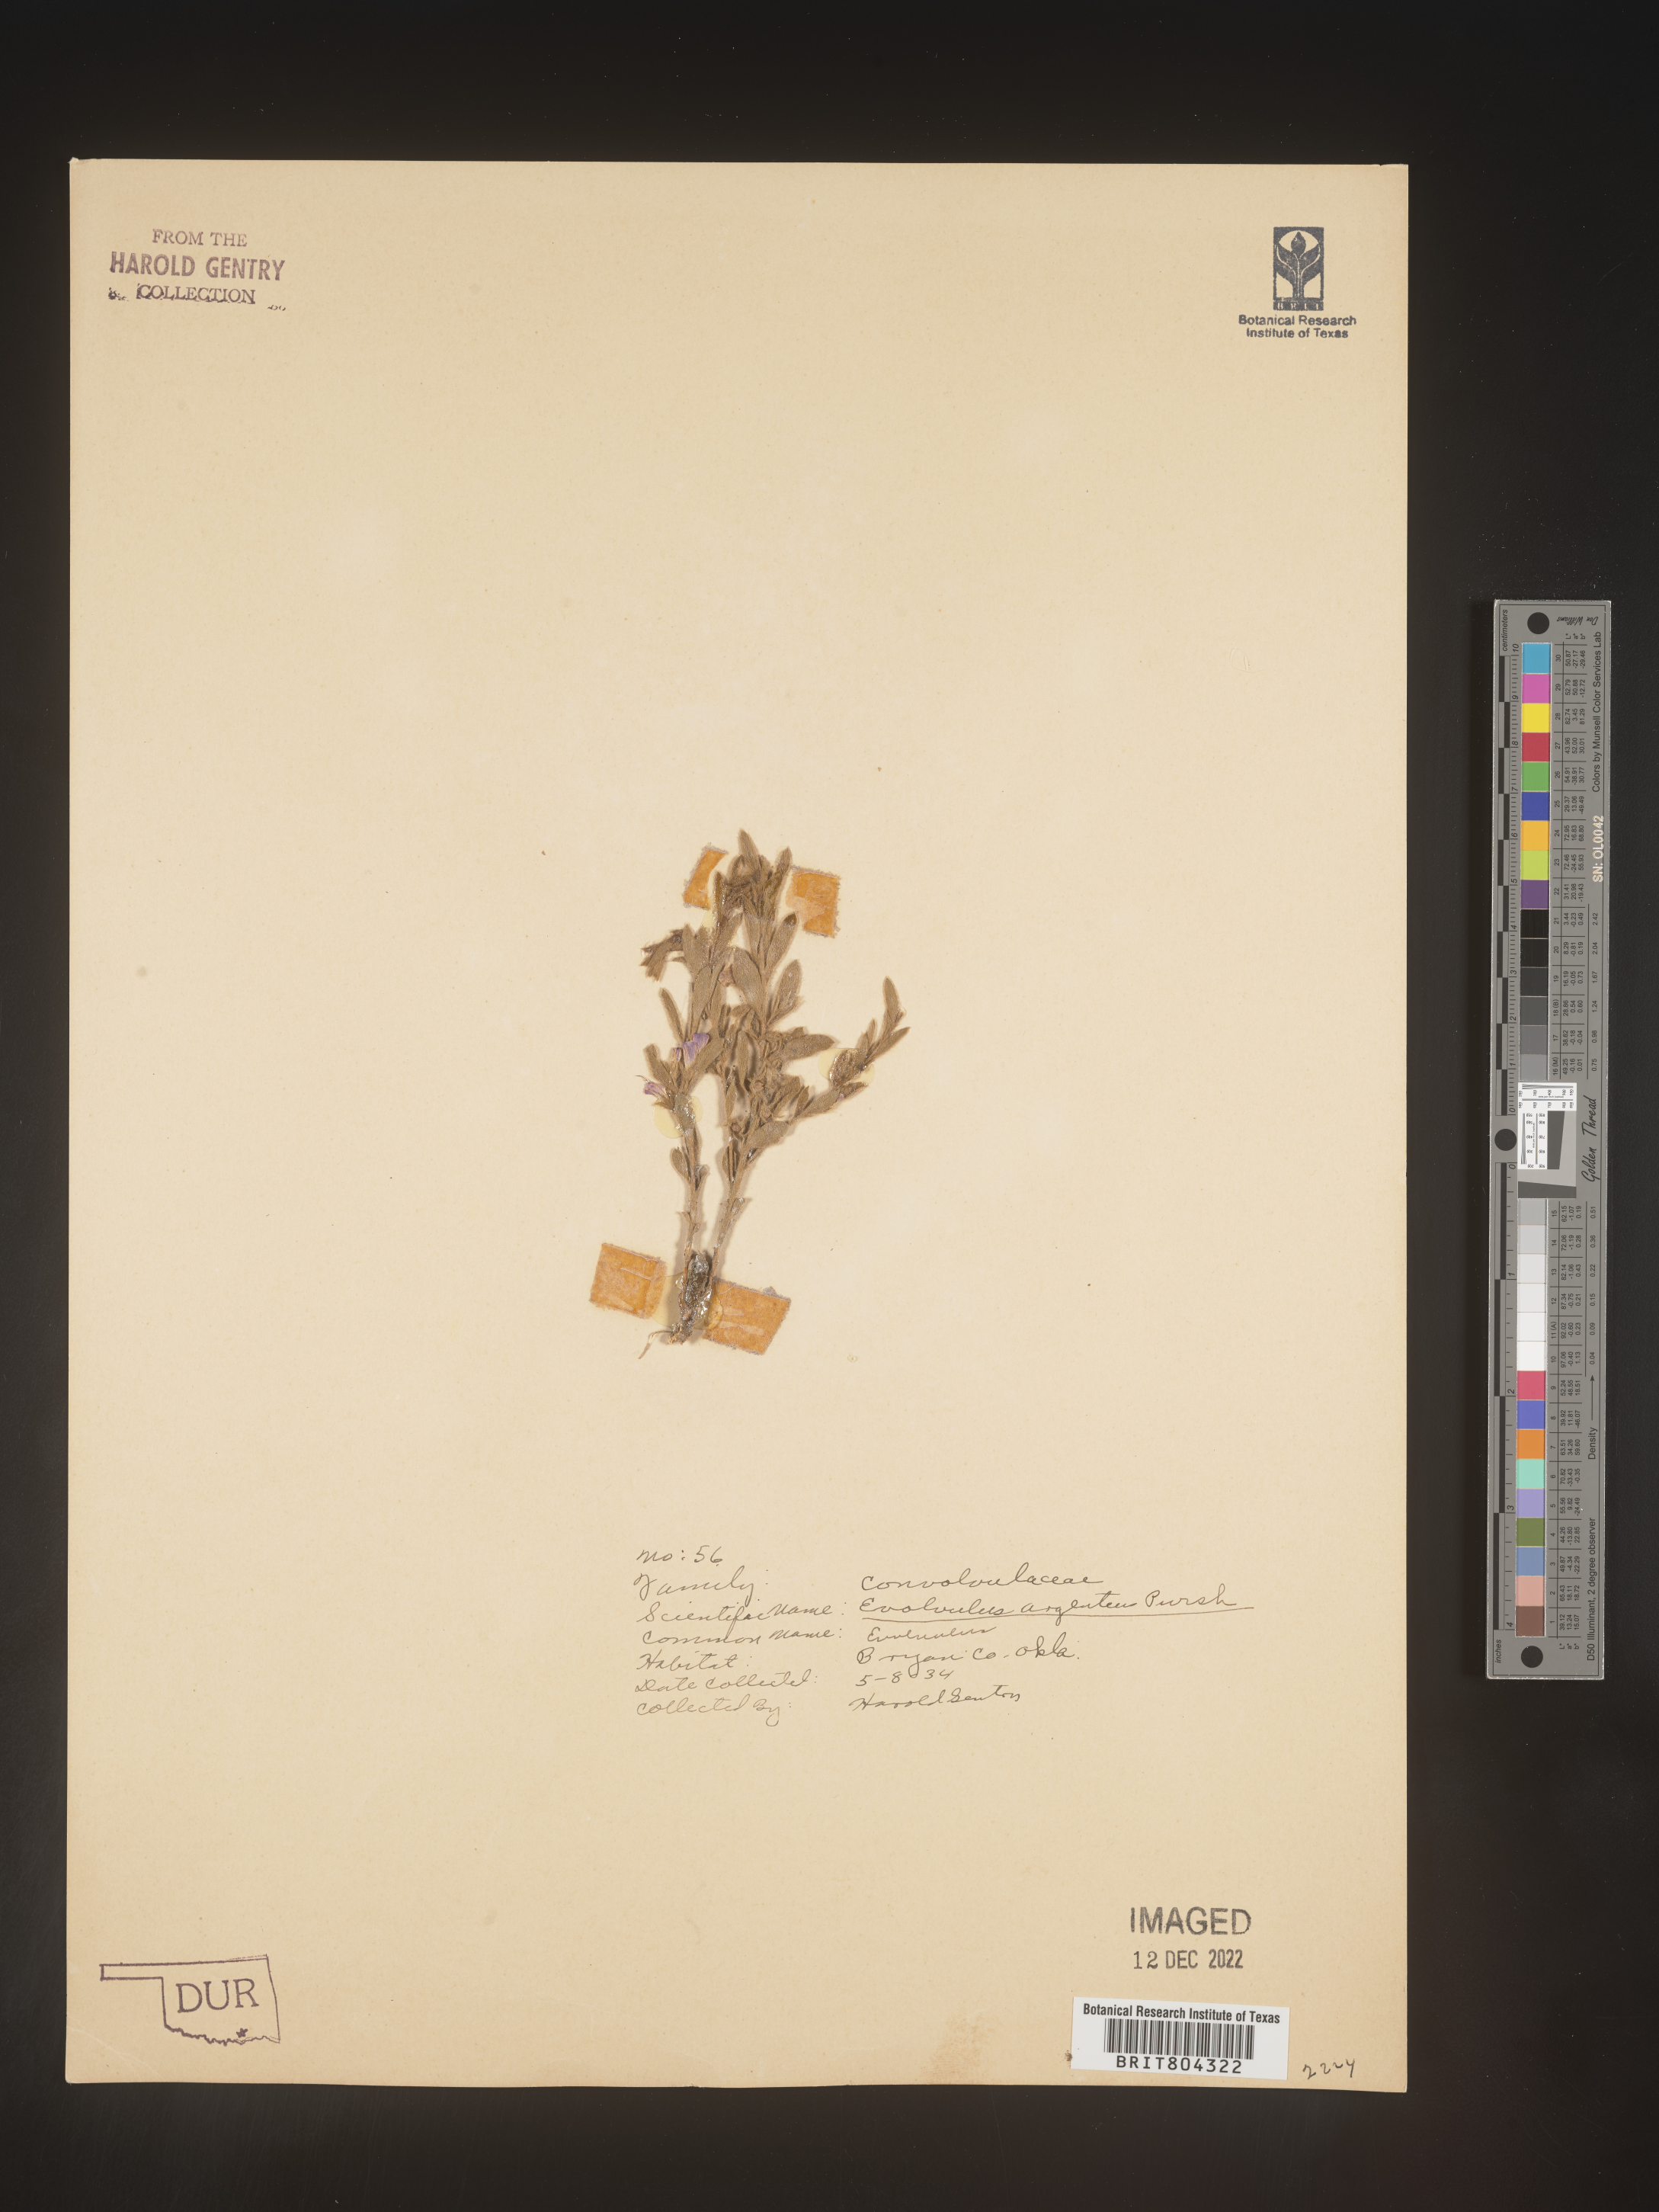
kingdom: Plantae
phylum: Tracheophyta
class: Magnoliopsida
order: Solanales
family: Convolvulaceae
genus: Evolvulus
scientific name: Evolvulus alsinoides
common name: Slender dwarf morning-glory
